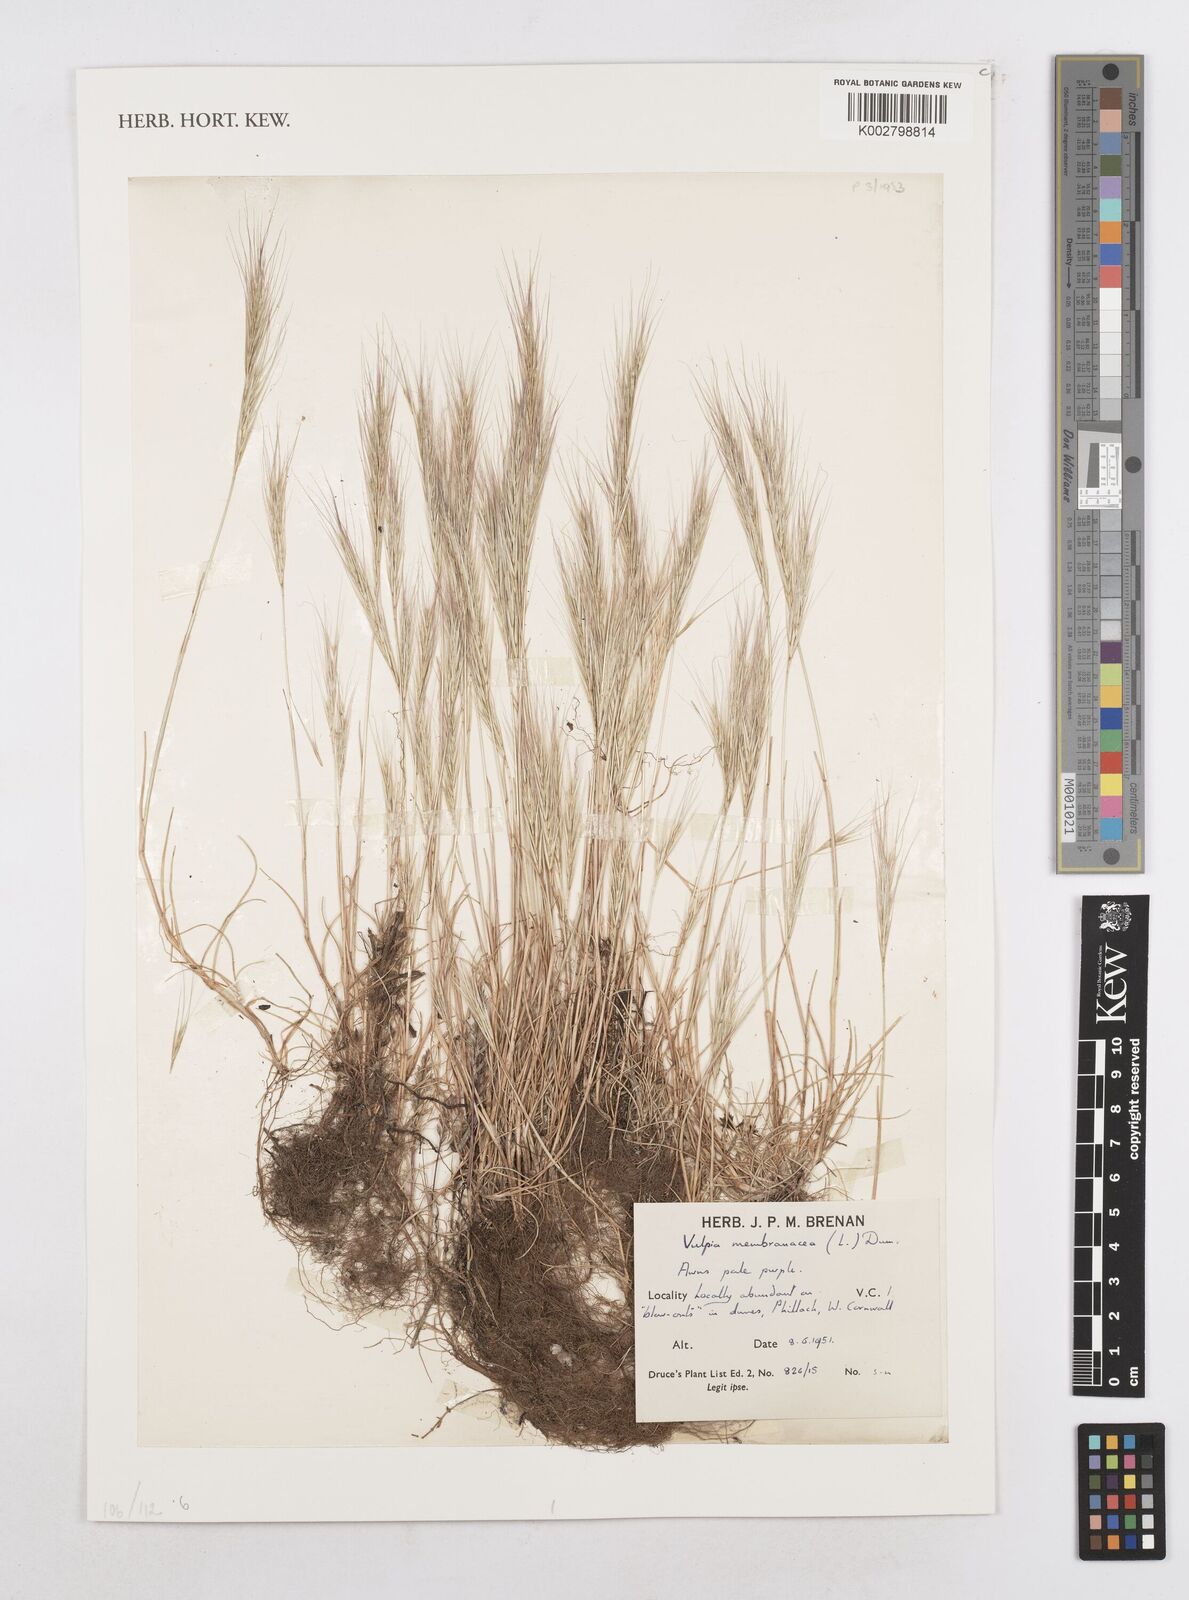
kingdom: Plantae
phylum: Tracheophyta
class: Liliopsida
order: Poales
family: Poaceae
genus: Festuca
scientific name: Festuca membranacea
